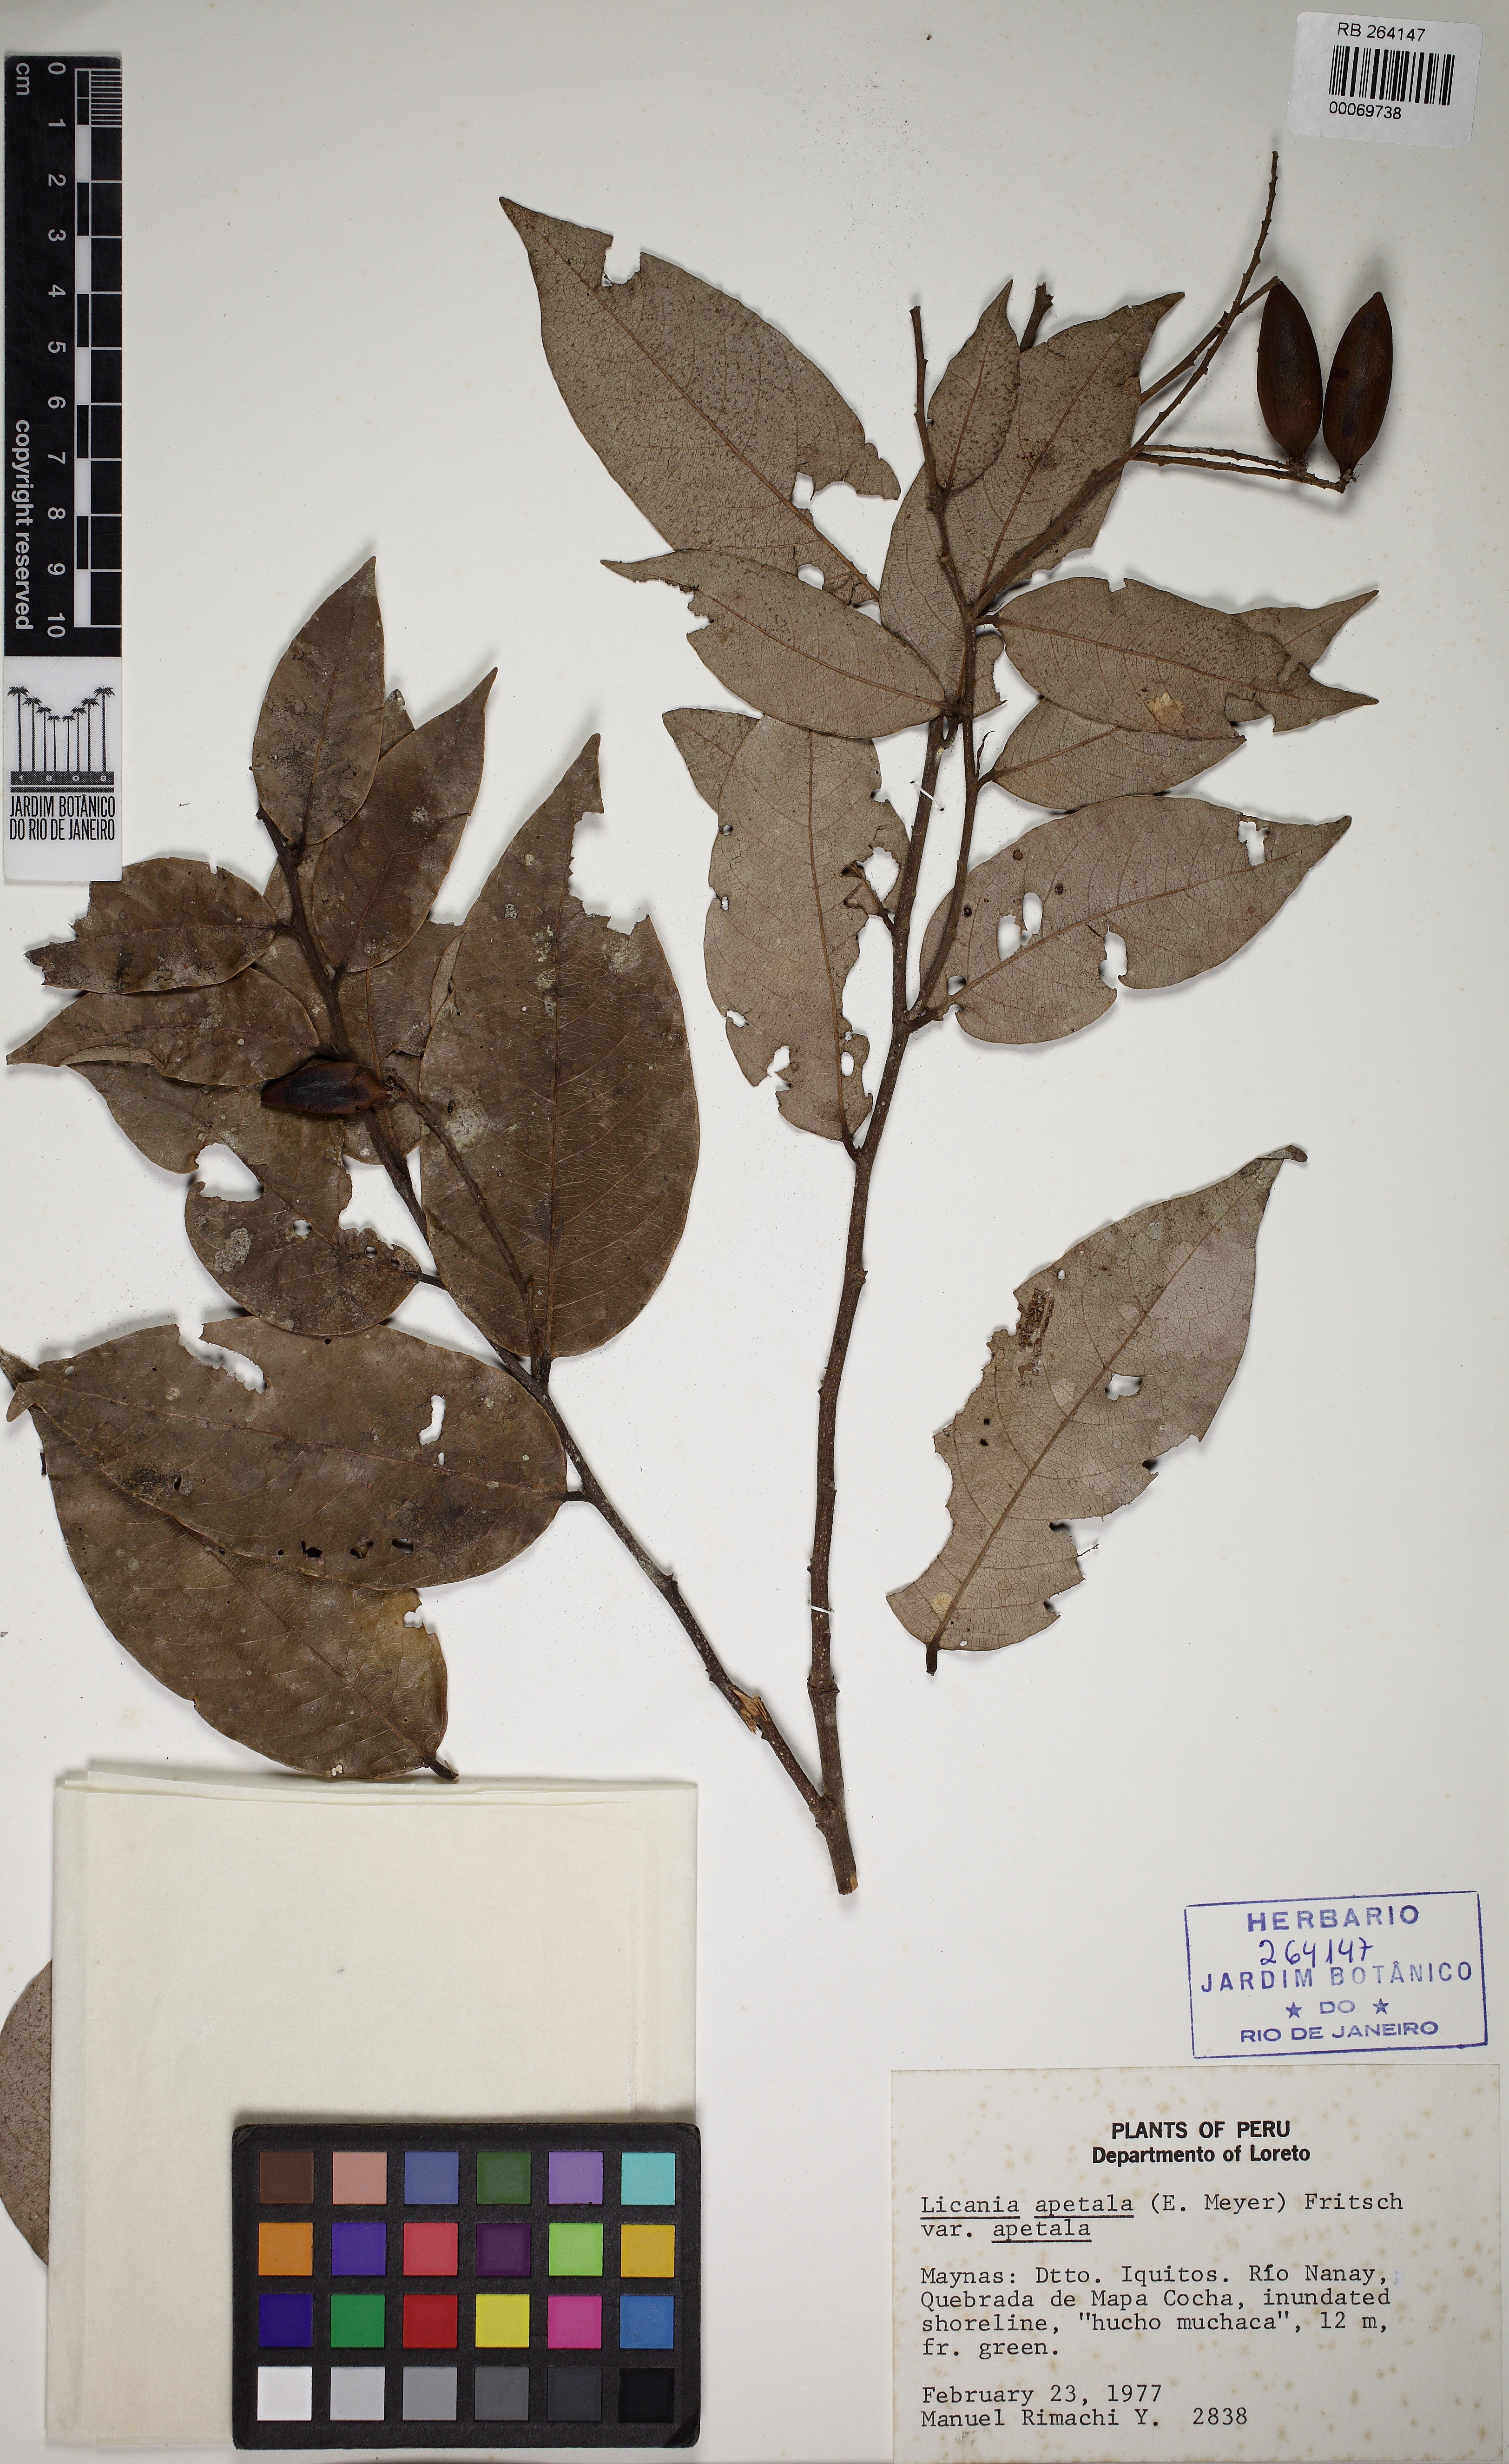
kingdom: Plantae
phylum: Tracheophyta
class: Magnoliopsida
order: Malpighiales
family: Chrysobalanaceae
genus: Leptobalanus
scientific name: Leptobalanus apetalus
